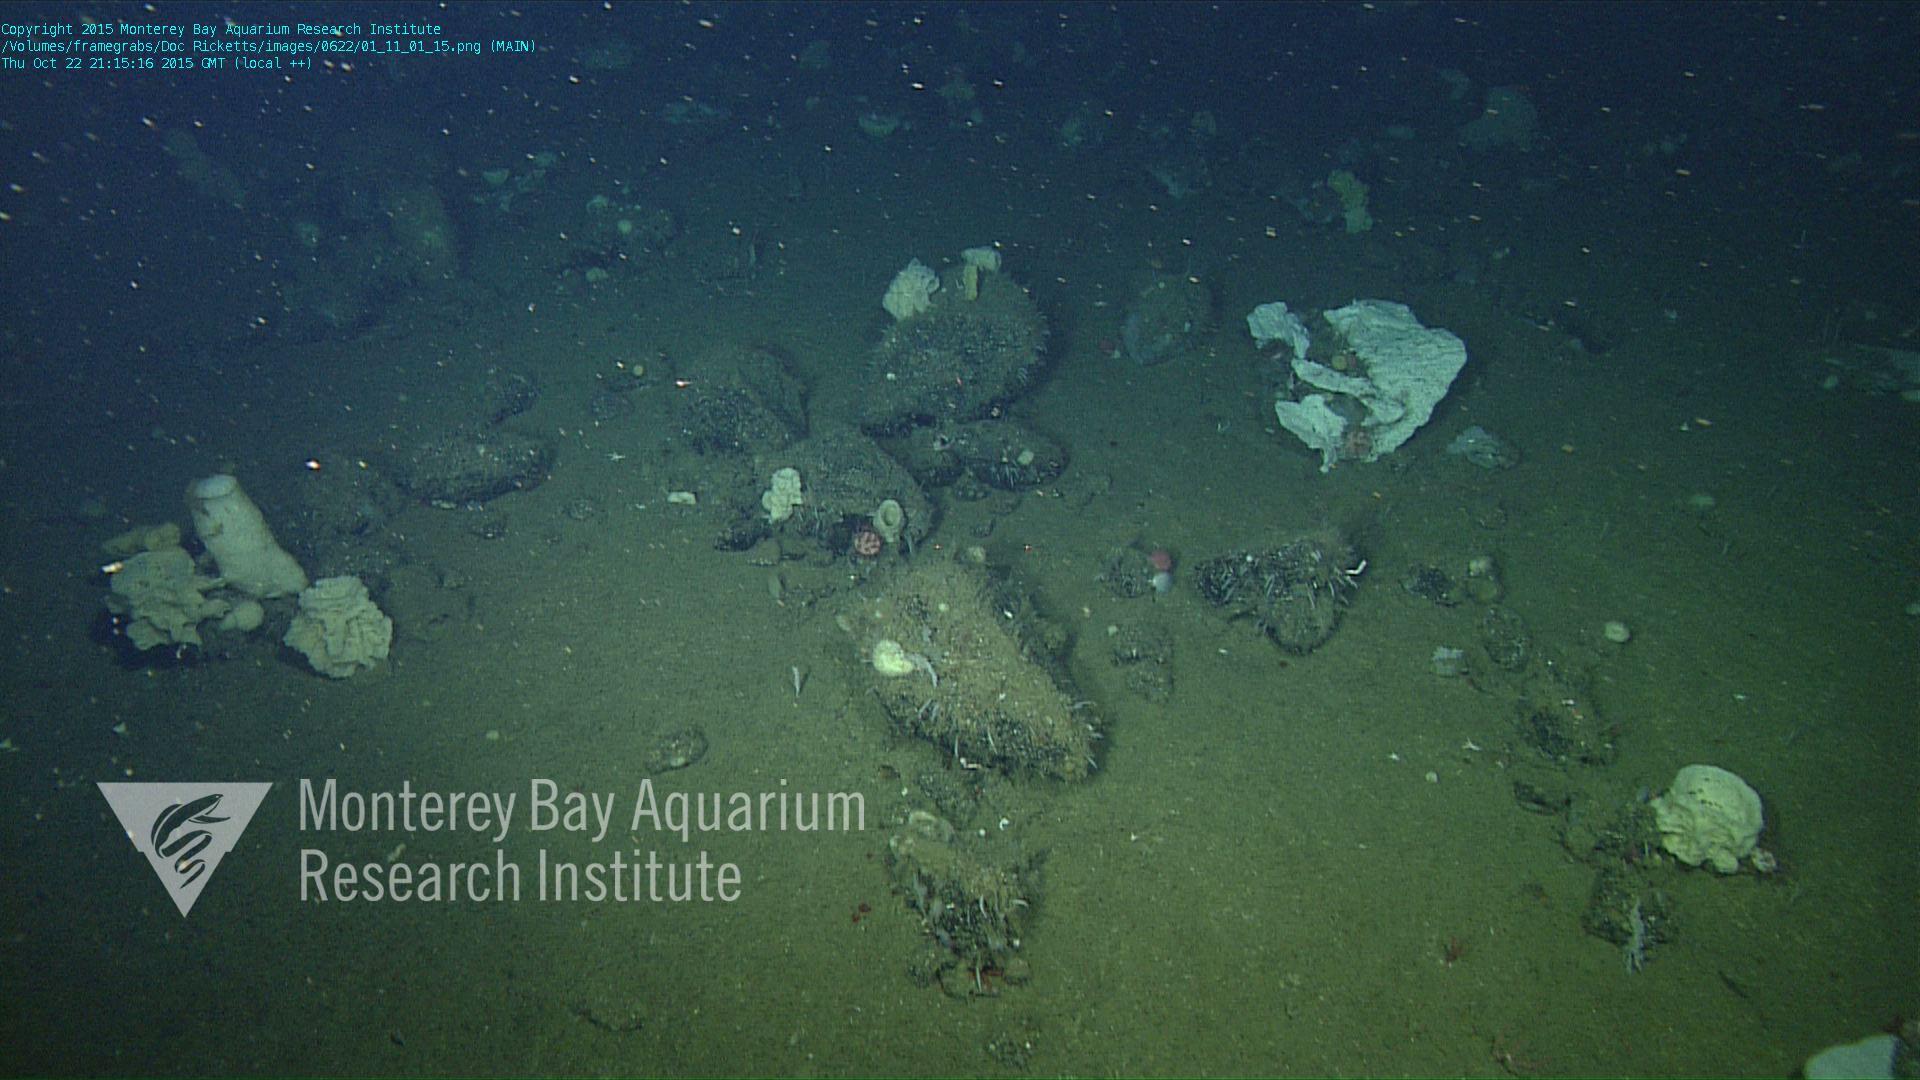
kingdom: Animalia
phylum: Cnidaria
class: Anthozoa
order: Scleralcyonacea
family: Coralliidae
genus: Heteropolypus
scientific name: Heteropolypus ritteri
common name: Ritter's soft coral
